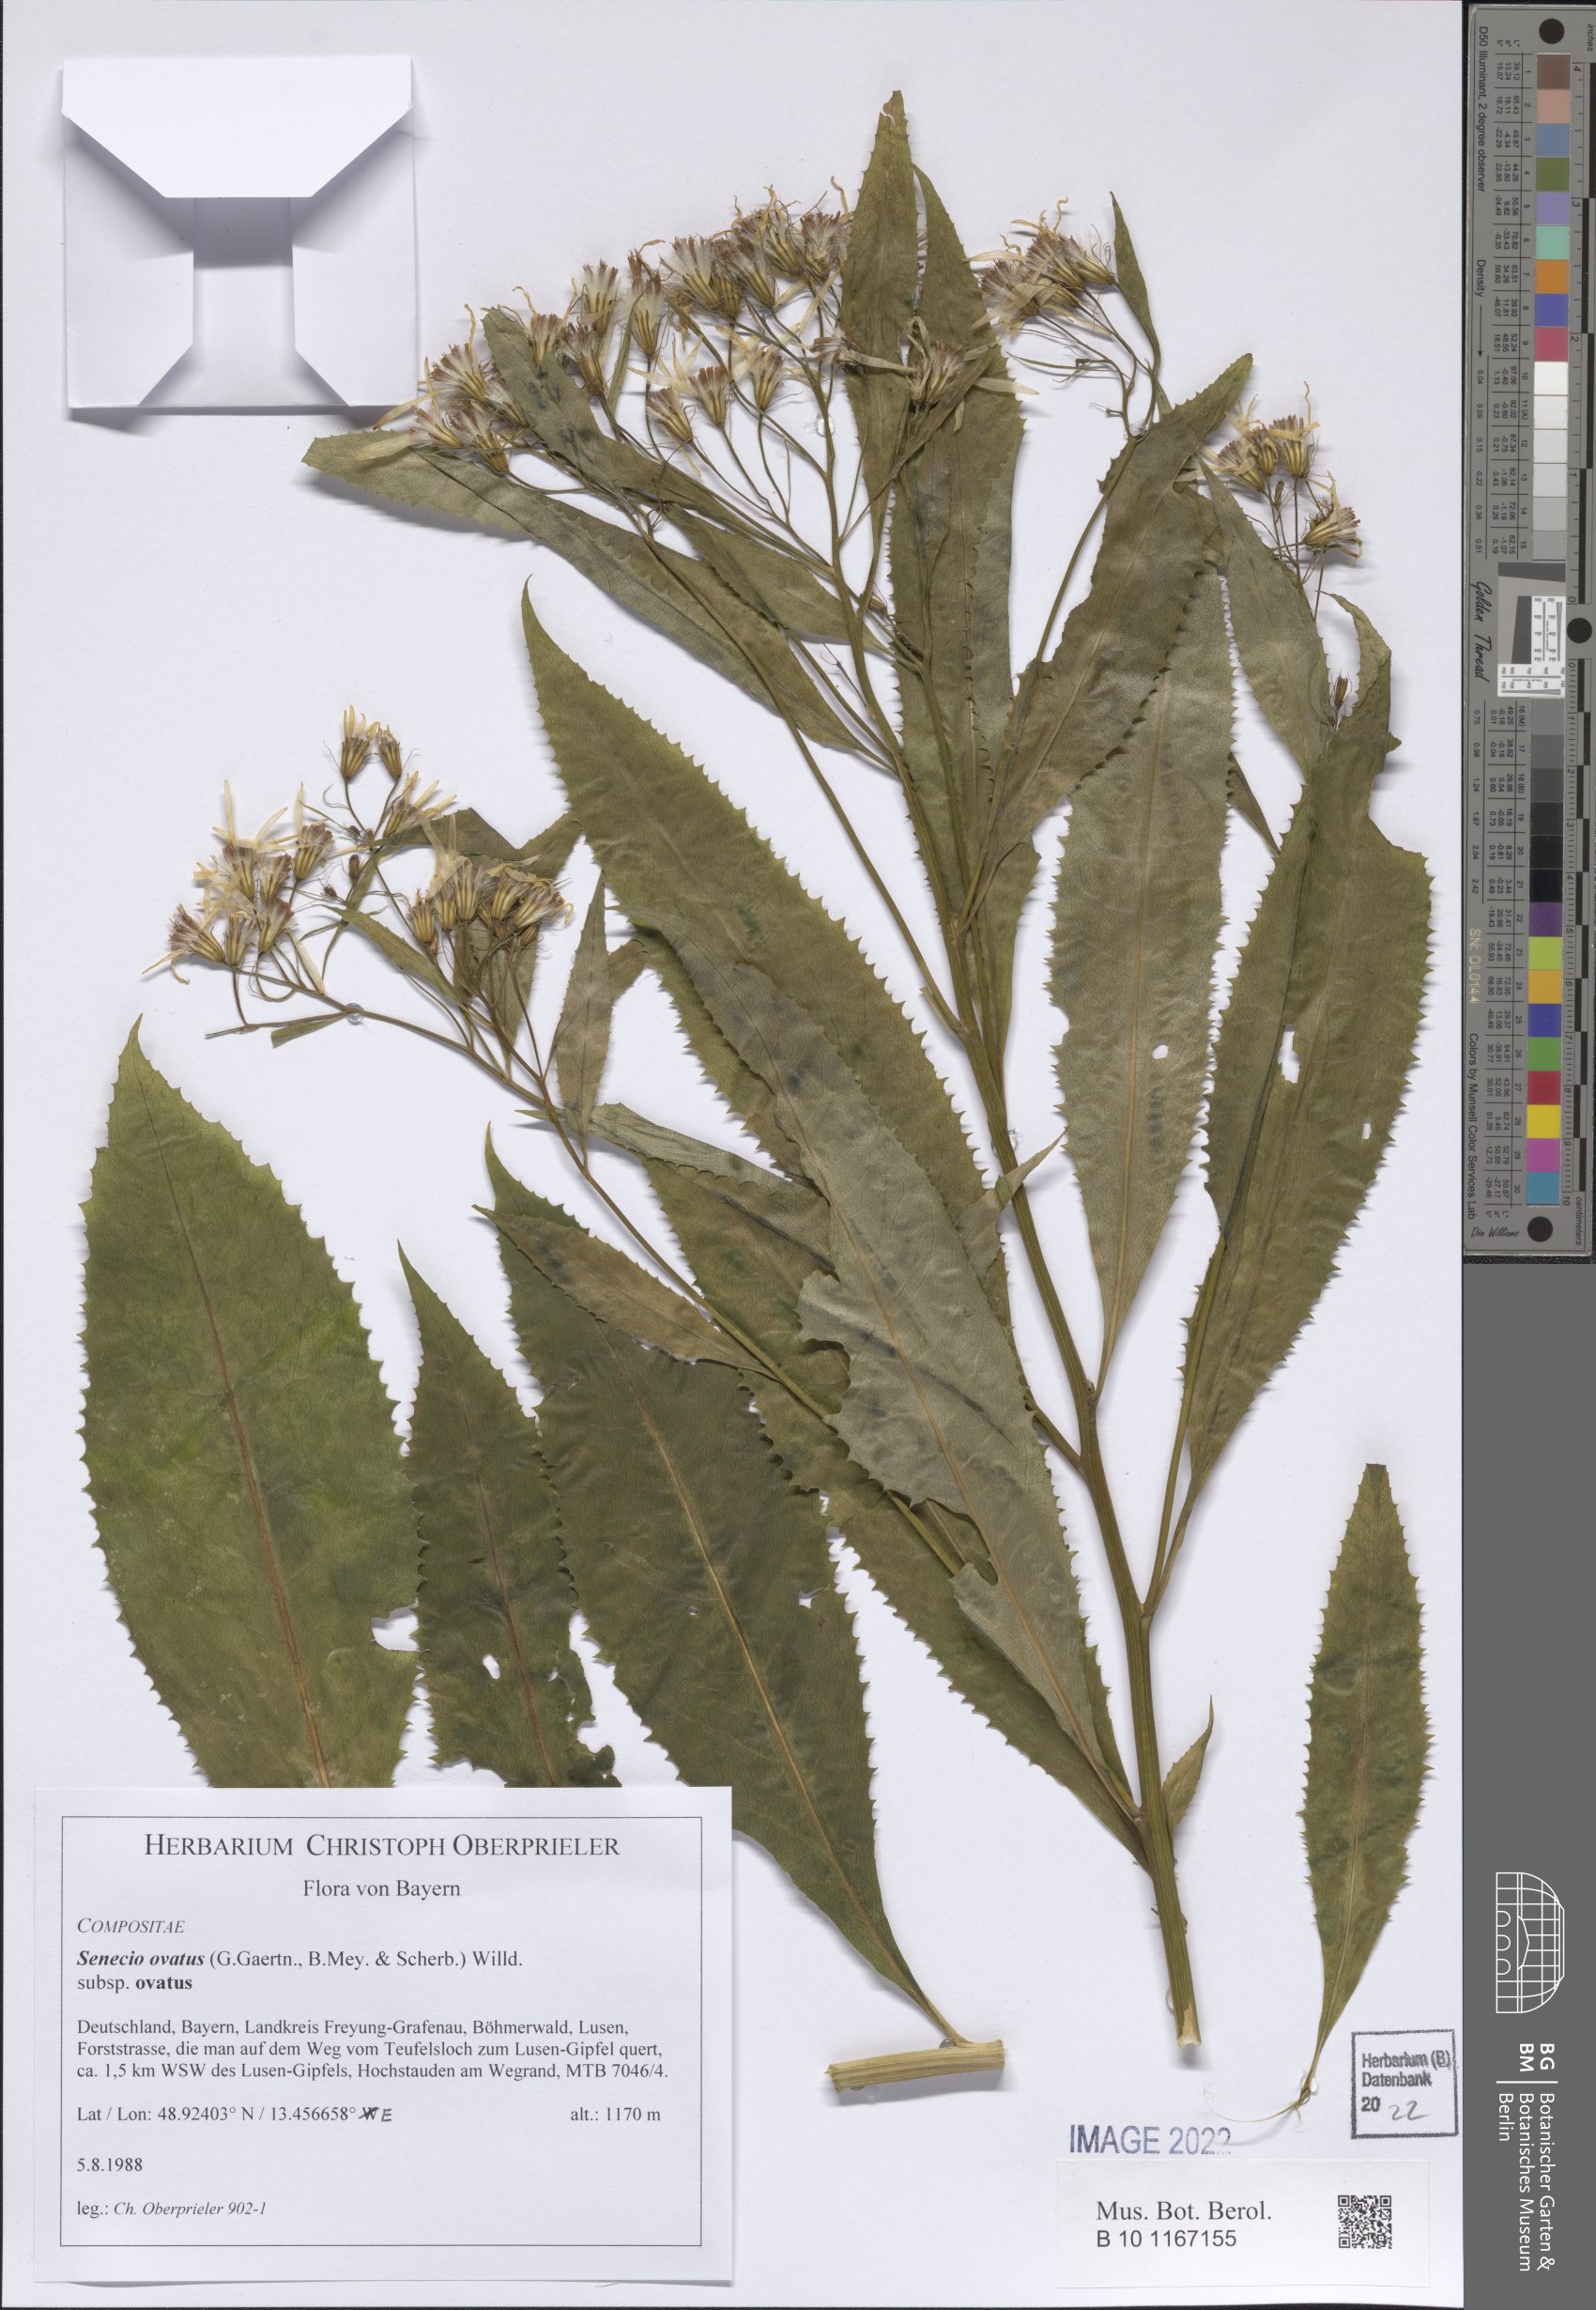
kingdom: Plantae
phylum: Tracheophyta
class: Magnoliopsida
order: Asterales
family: Asteraceae
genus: Senecio
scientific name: Senecio ovatus
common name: Wood ragwort
